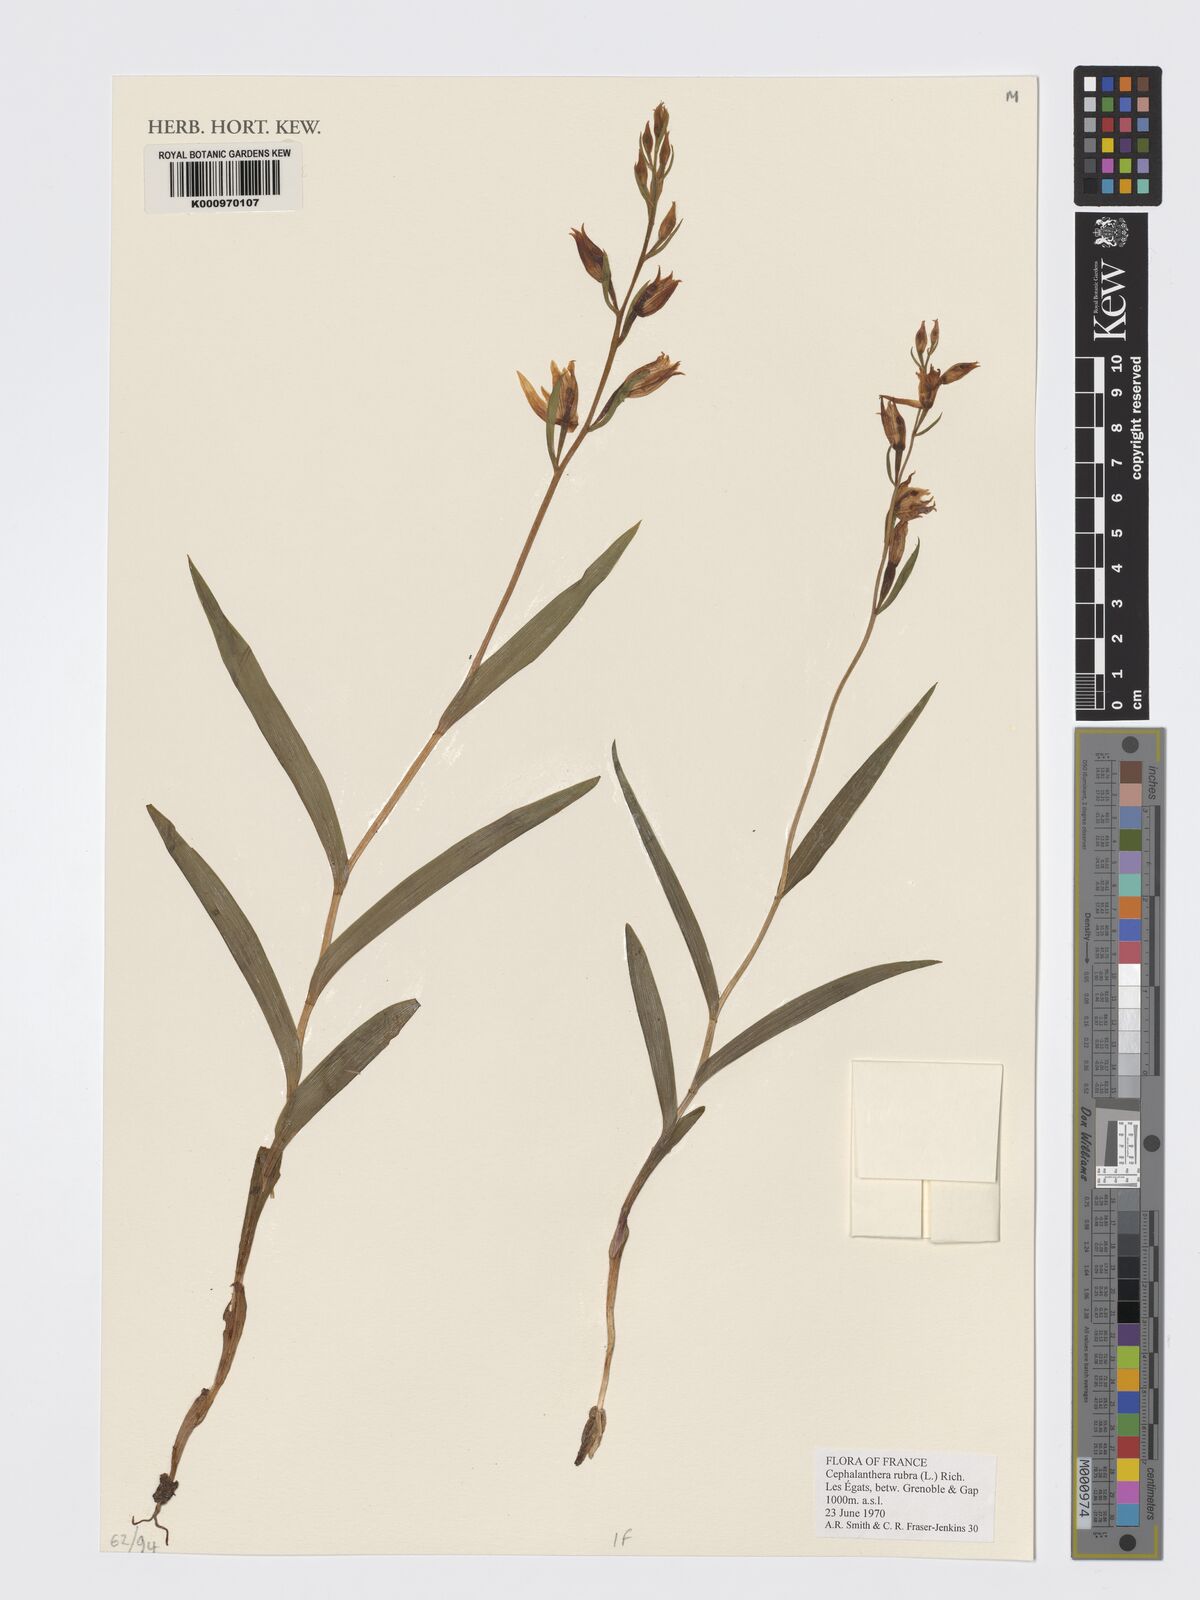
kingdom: Plantae
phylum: Tracheophyta
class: Liliopsida
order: Asparagales
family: Orchidaceae
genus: Cephalanthera
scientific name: Cephalanthera rubra
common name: Red helleborine
